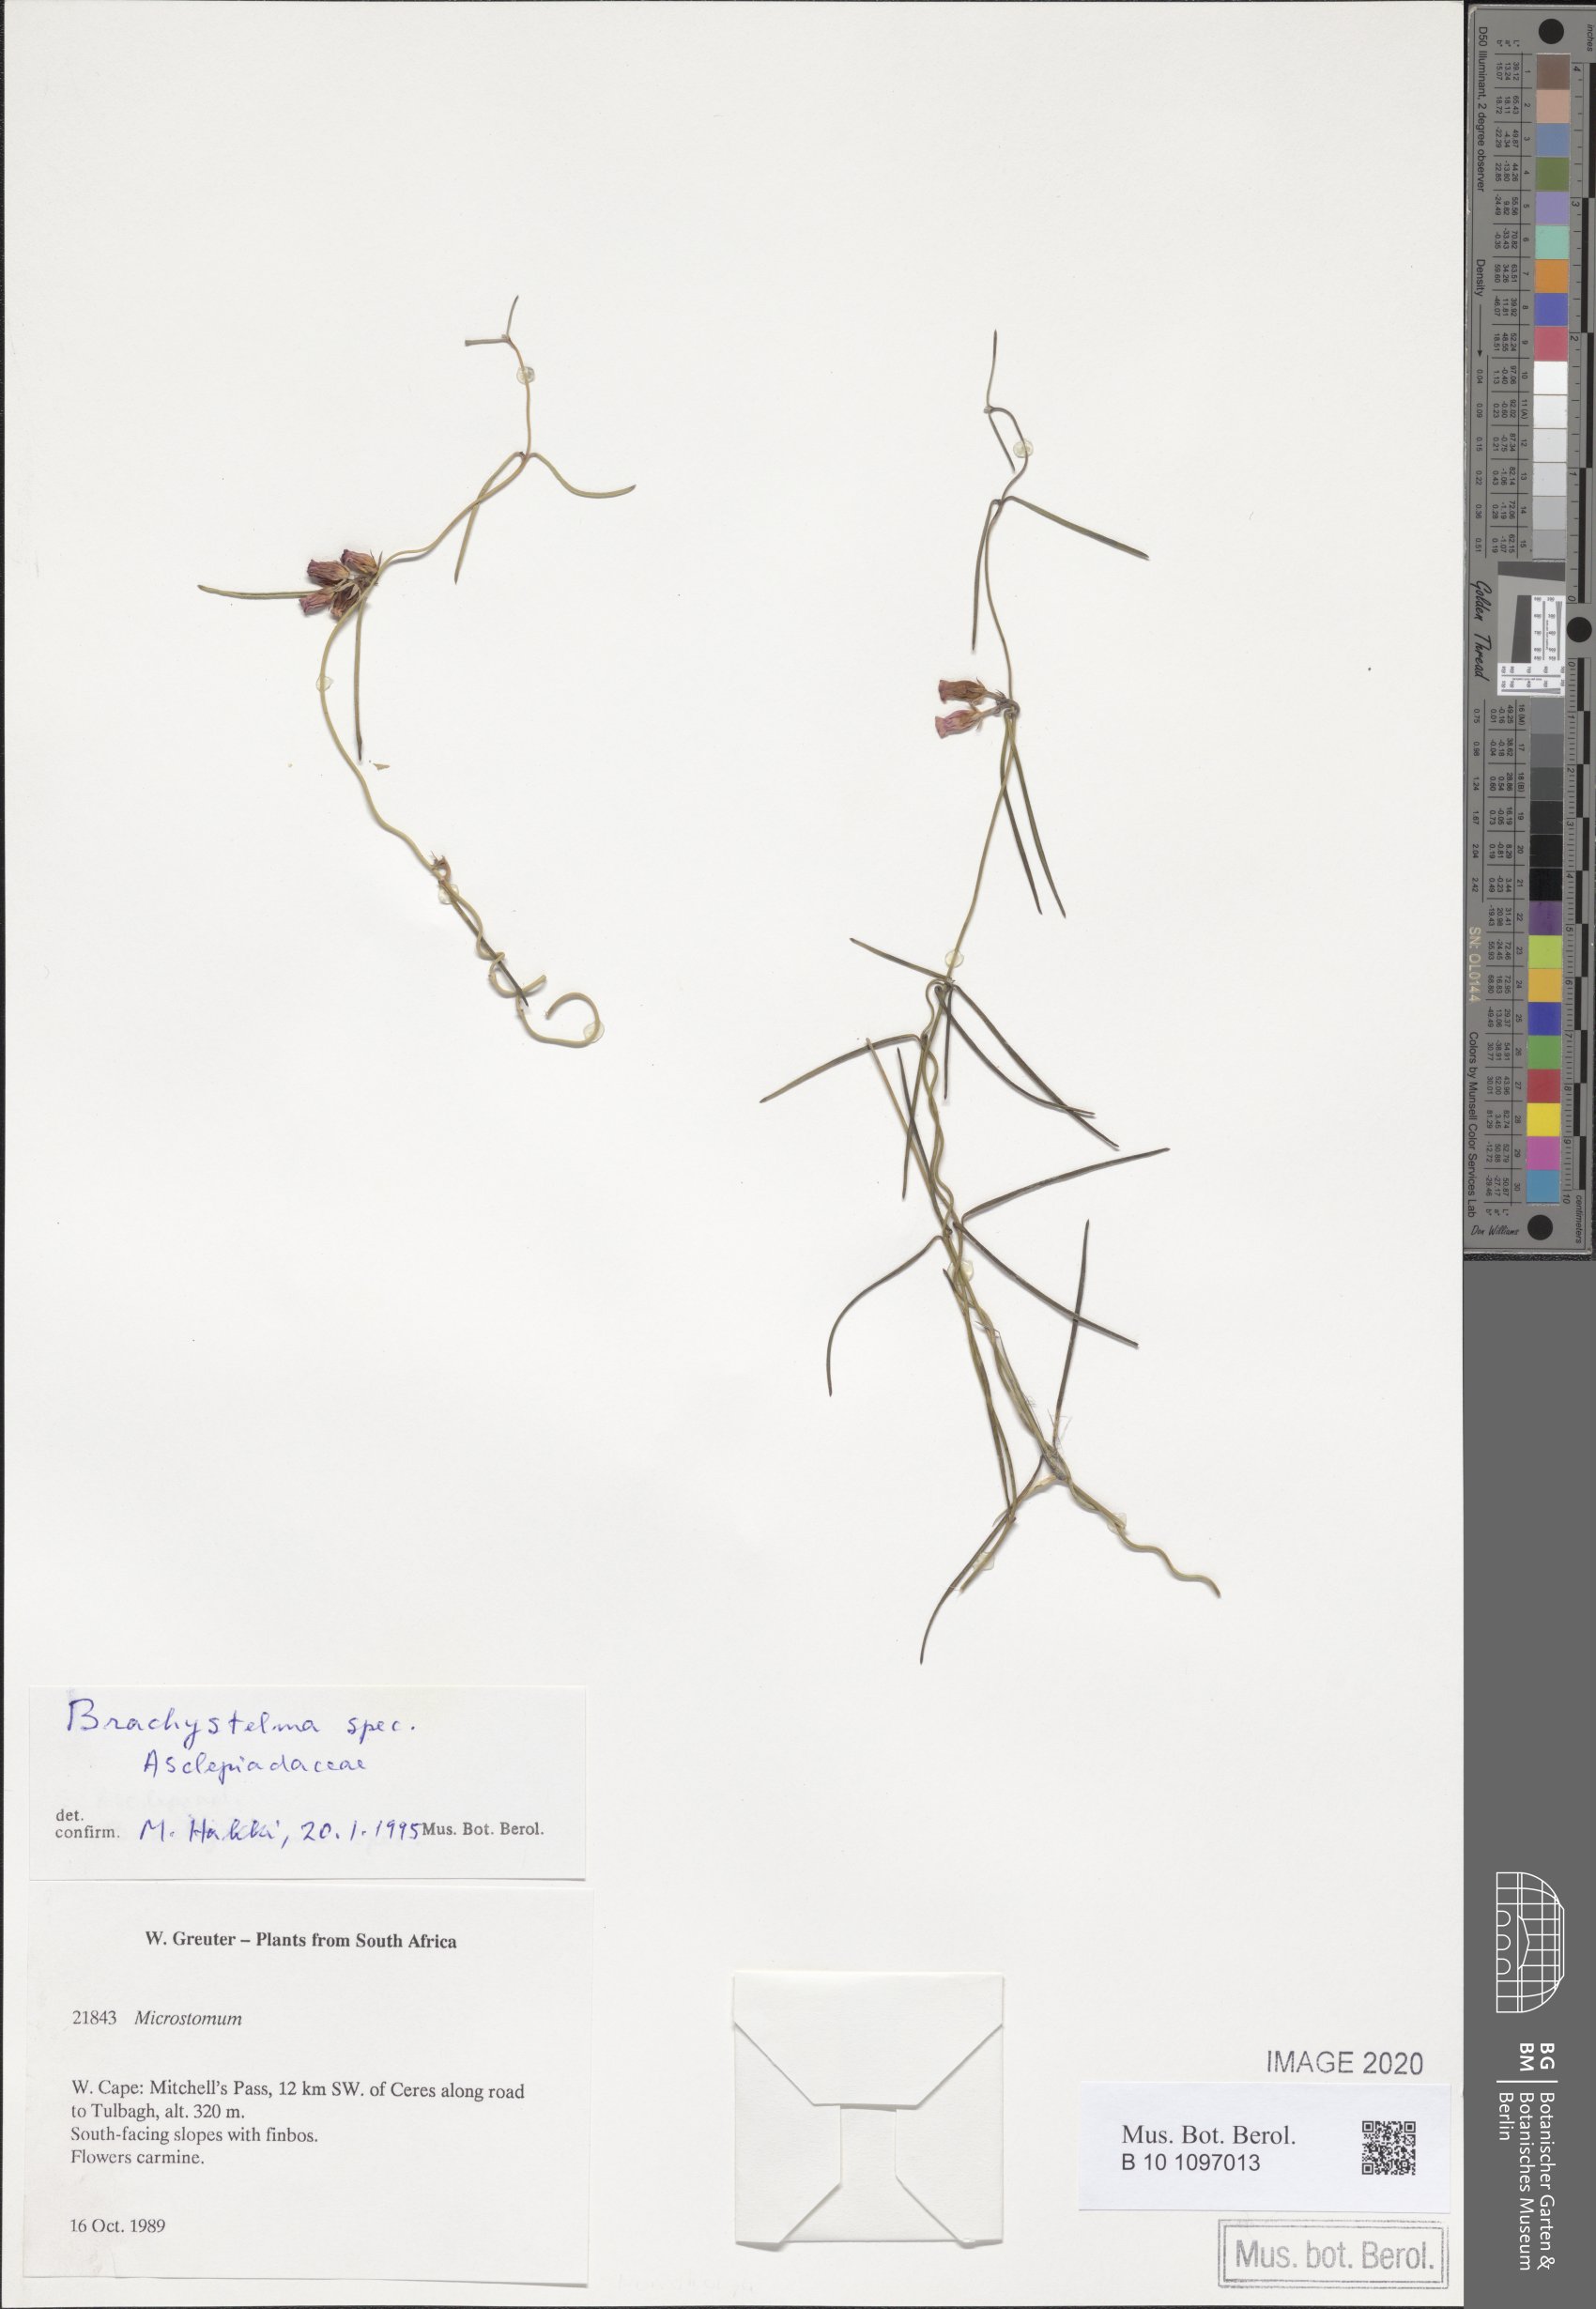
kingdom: Plantae
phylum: Tracheophyta
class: Magnoliopsida
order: Gentianales
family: Apocynaceae
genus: Ceropegia
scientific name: Ceropegia
